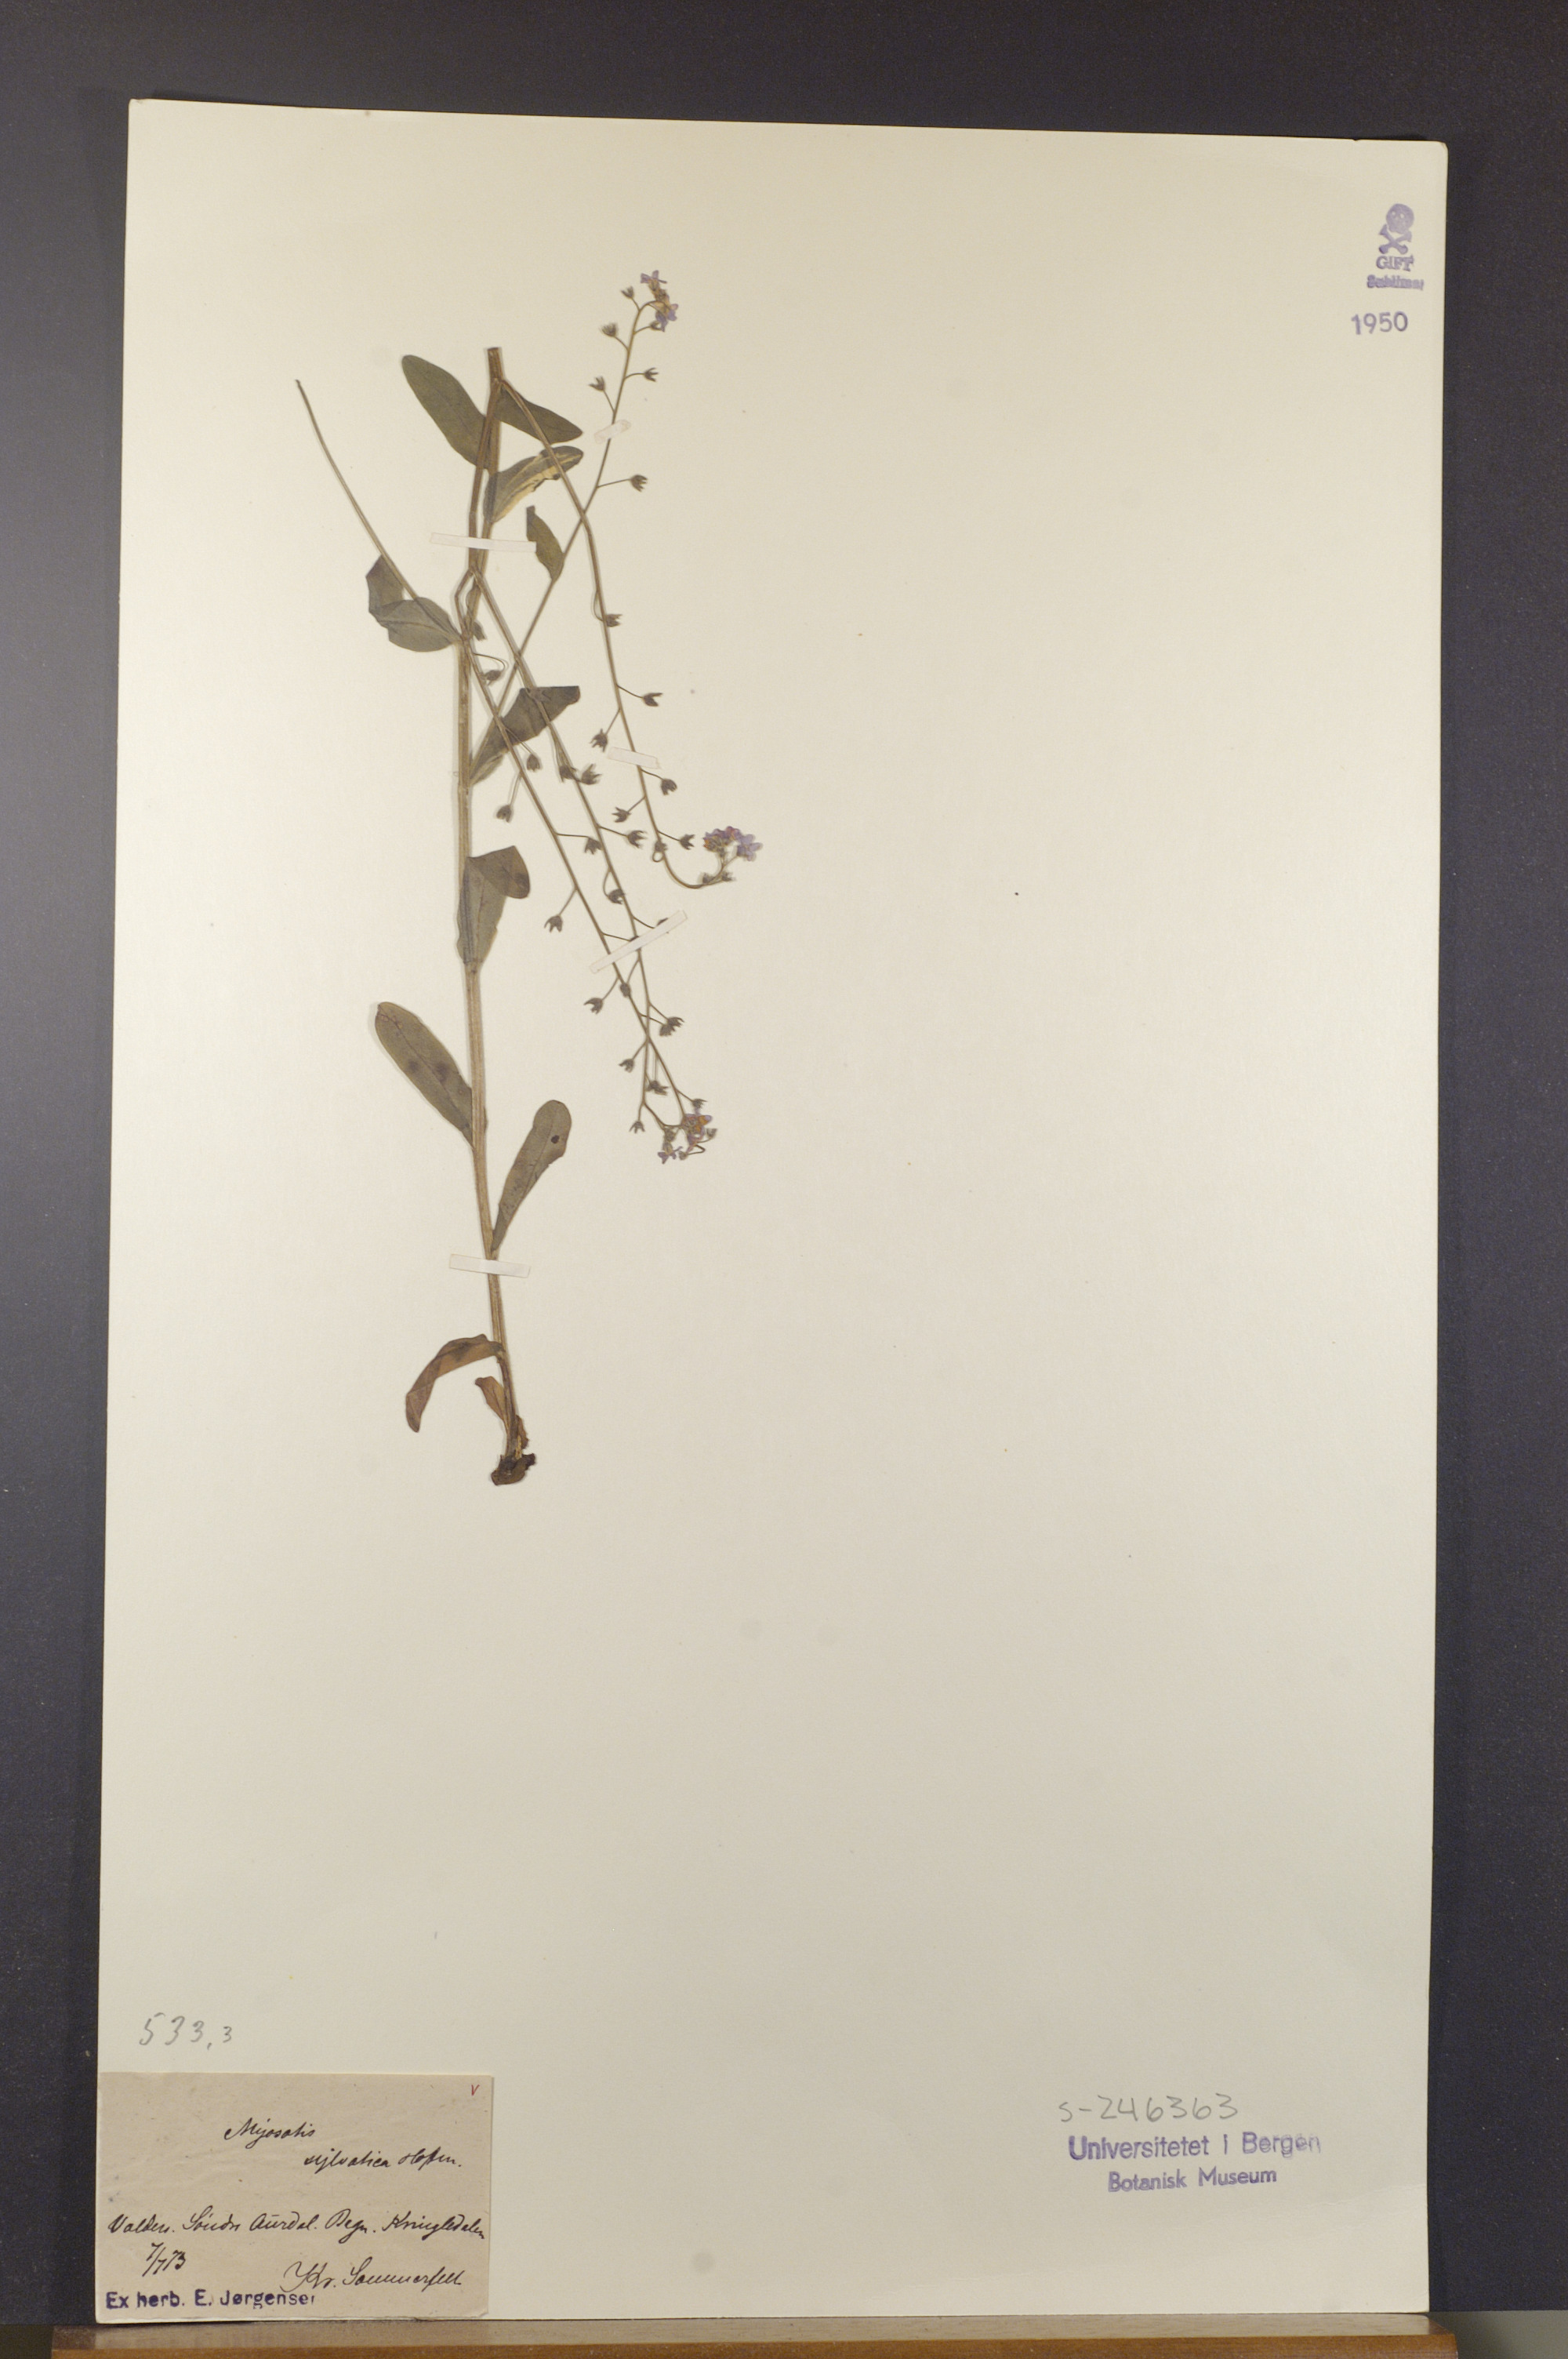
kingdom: Plantae
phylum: Tracheophyta
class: Magnoliopsida
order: Boraginales
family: Boraginaceae
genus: Myosotis
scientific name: Myosotis decumbens
